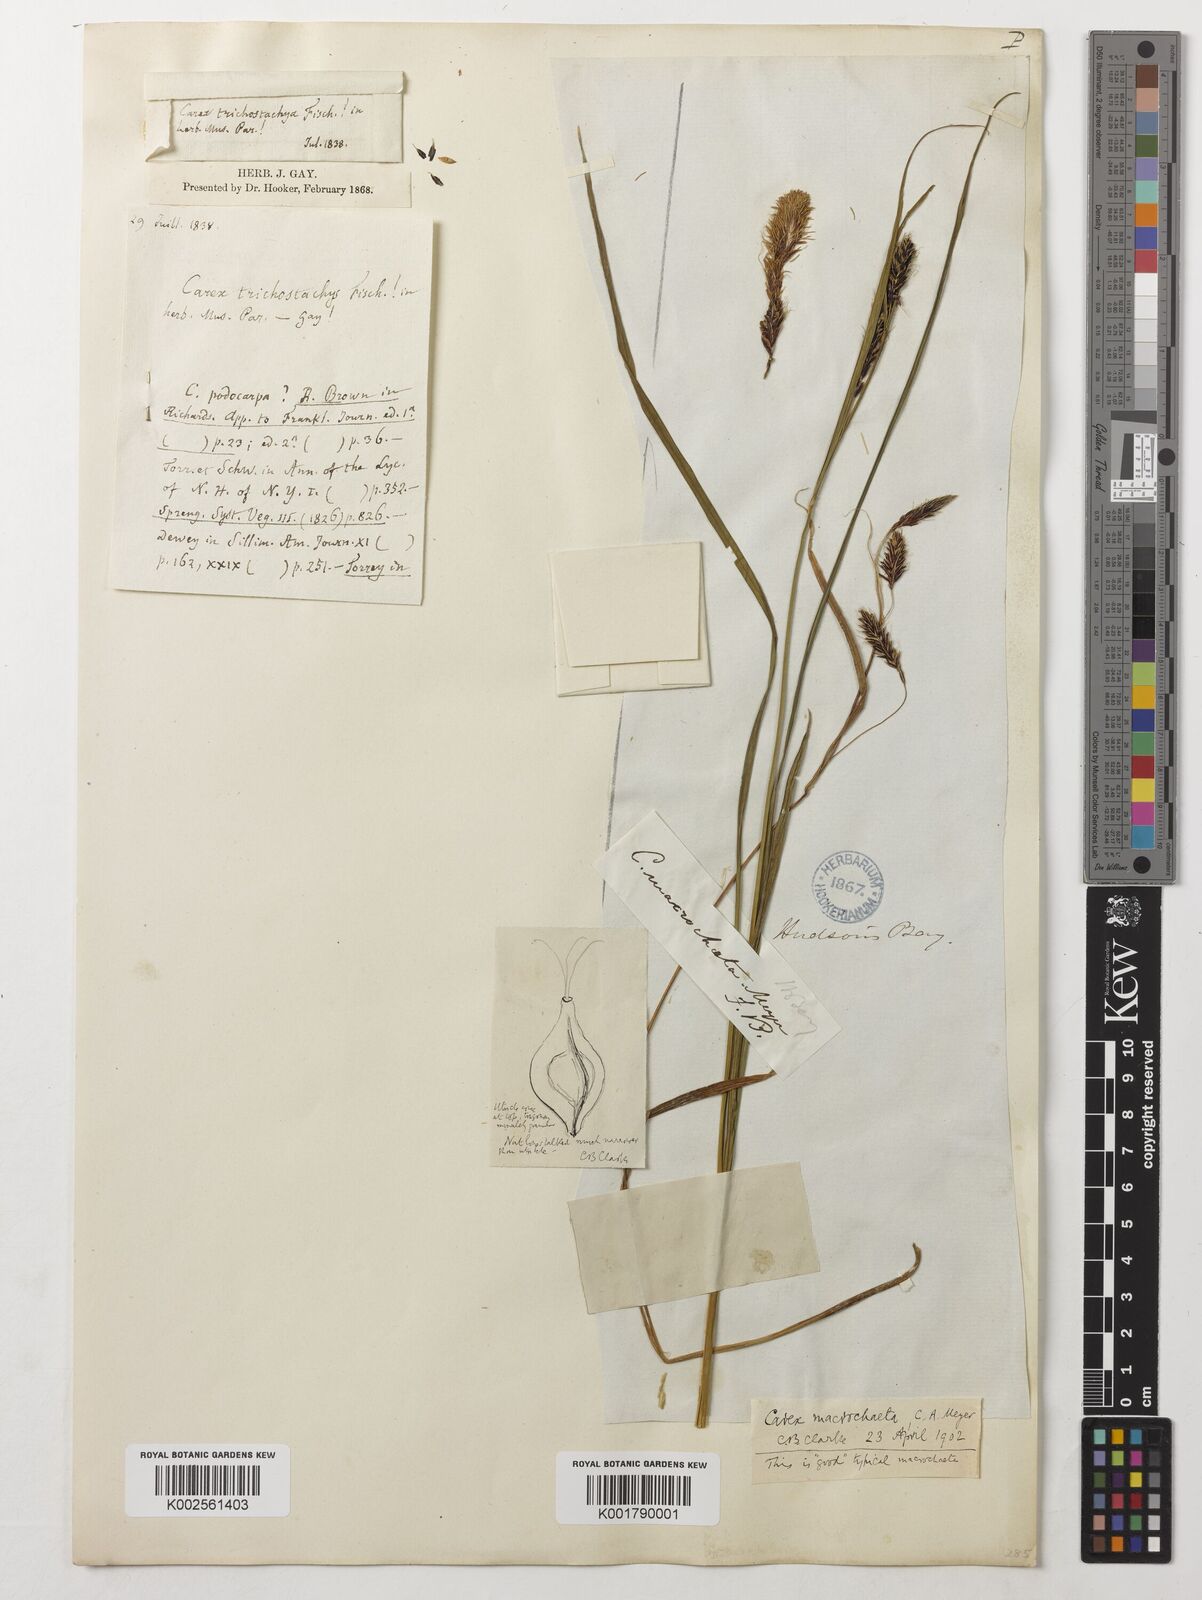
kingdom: Plantae
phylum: Tracheophyta
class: Liliopsida
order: Poales
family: Cyperaceae
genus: Carex
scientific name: Carex macrochaeta
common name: Alaska large awn sedge
